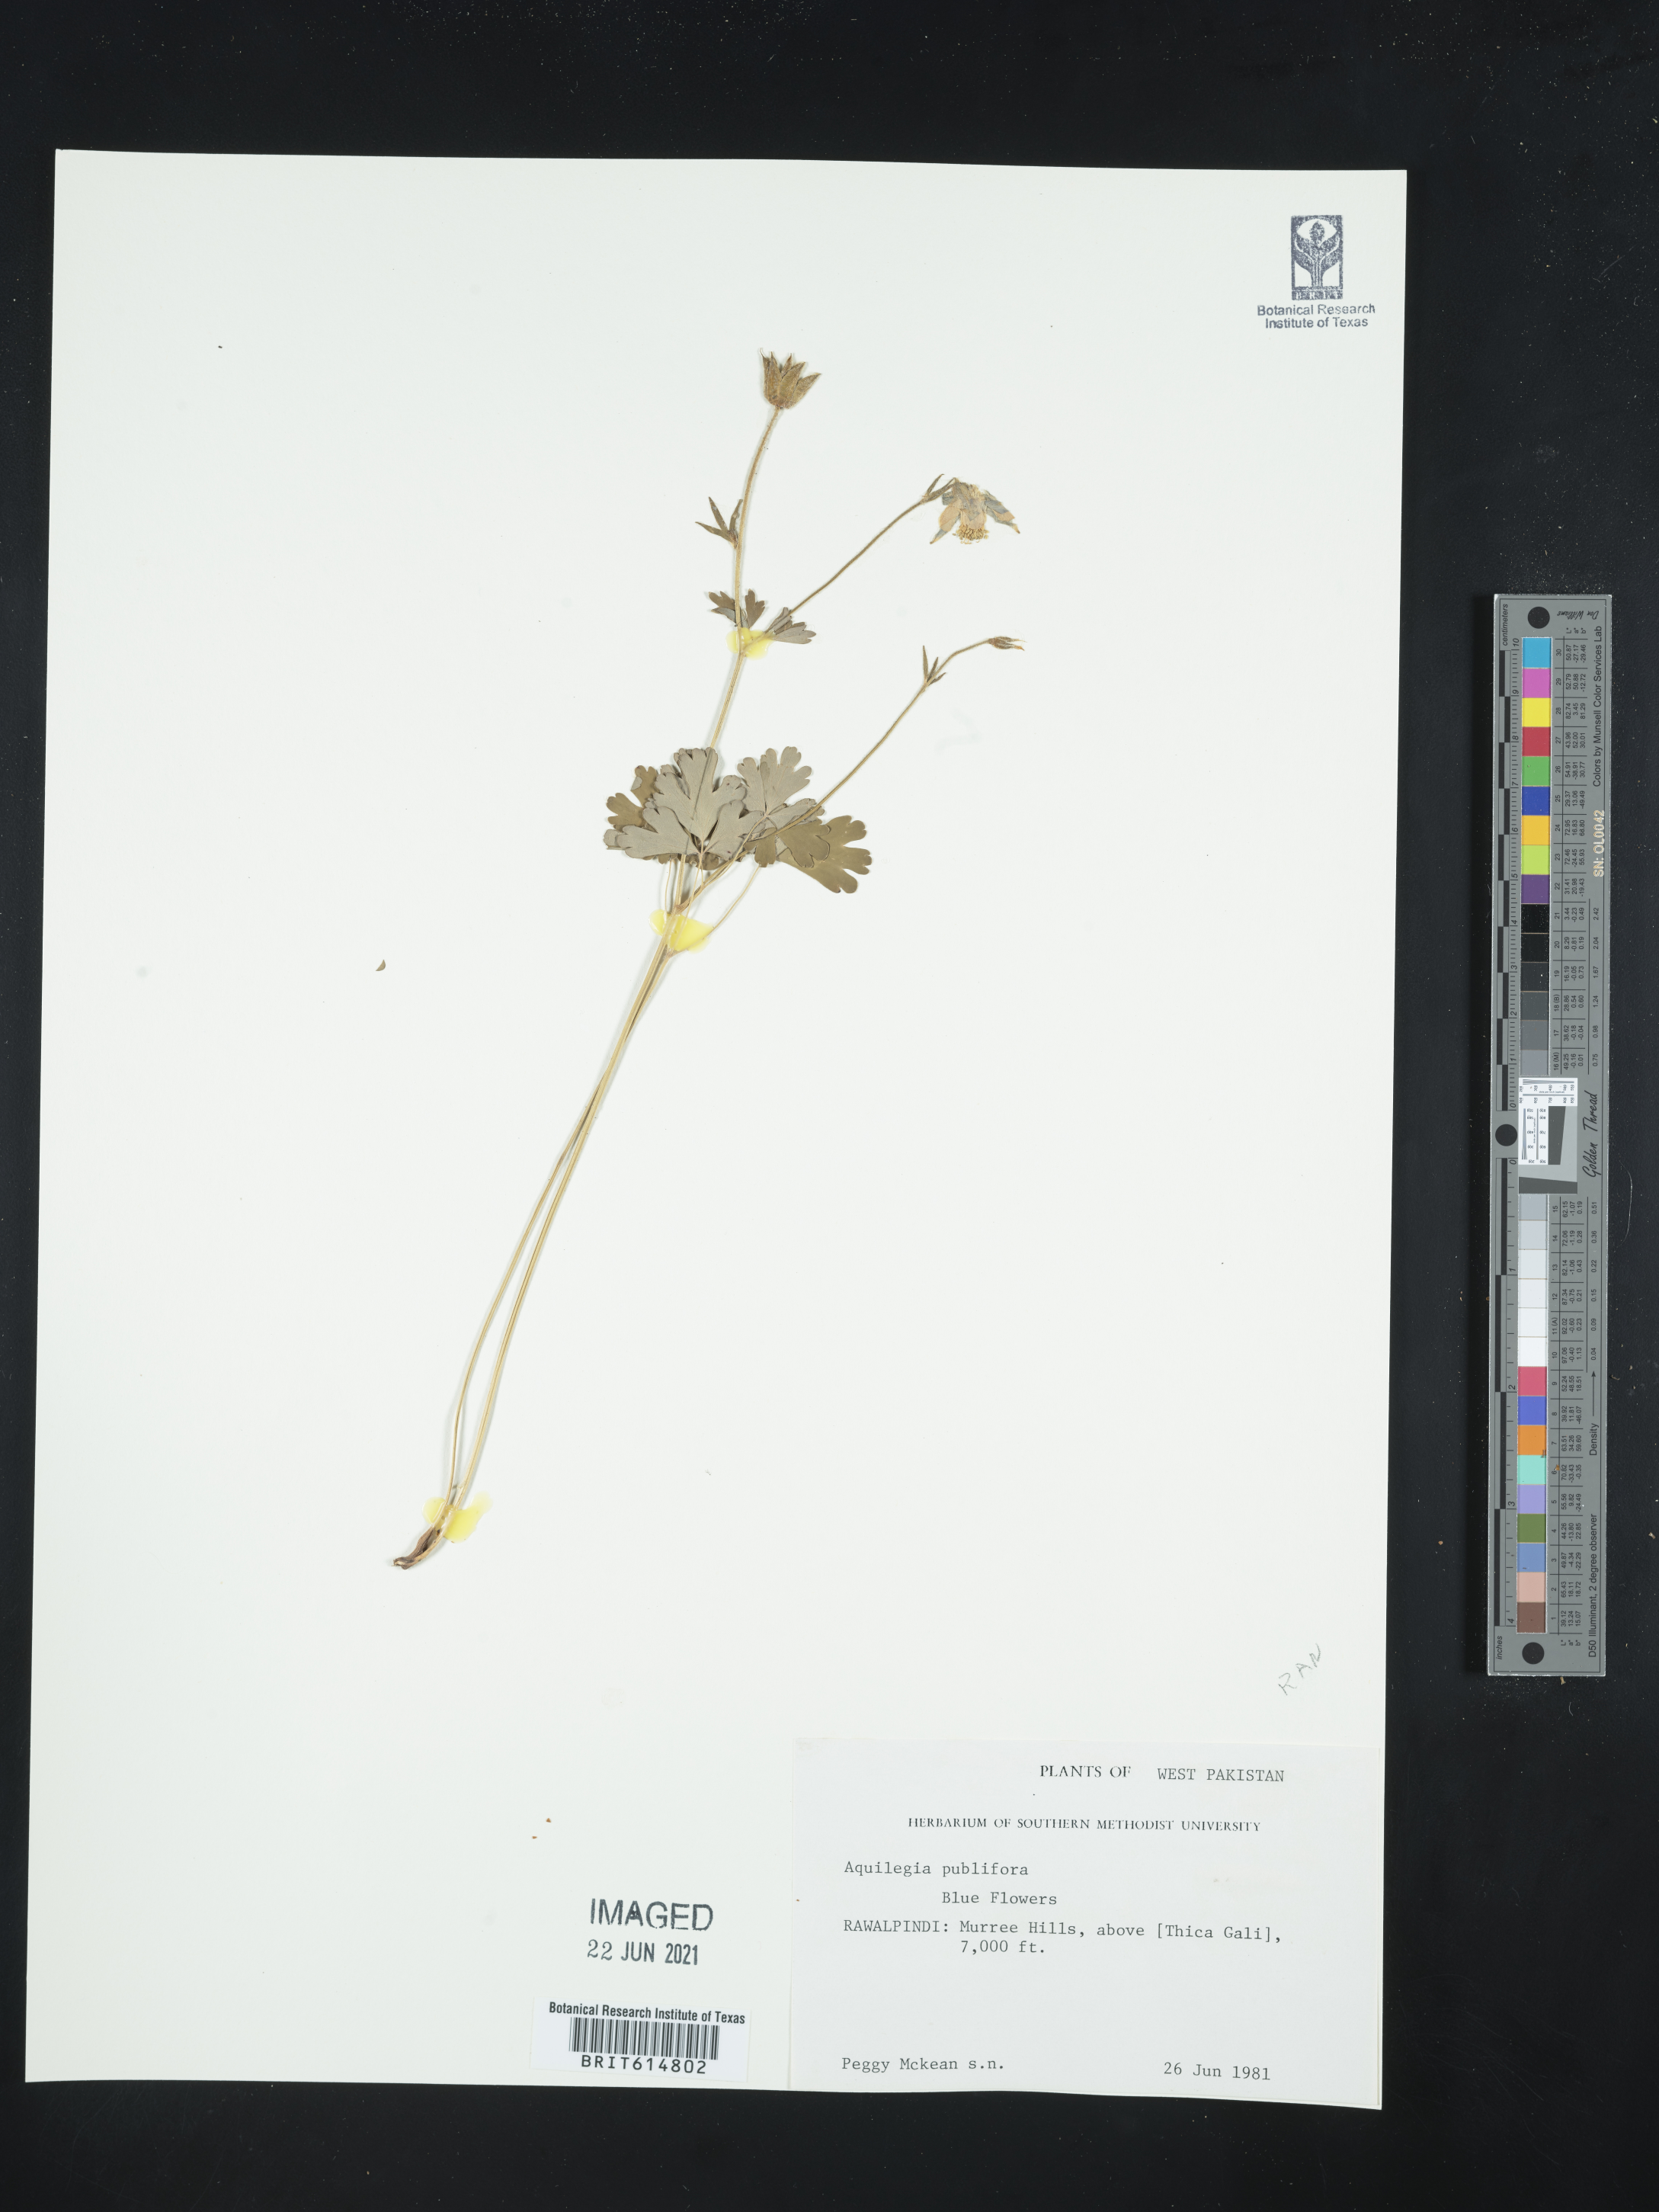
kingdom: Plantae
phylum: Tracheophyta
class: Magnoliopsida
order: Ranunculales
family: Ranunculaceae
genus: Aquilegia
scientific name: Aquilegia pubiflora
